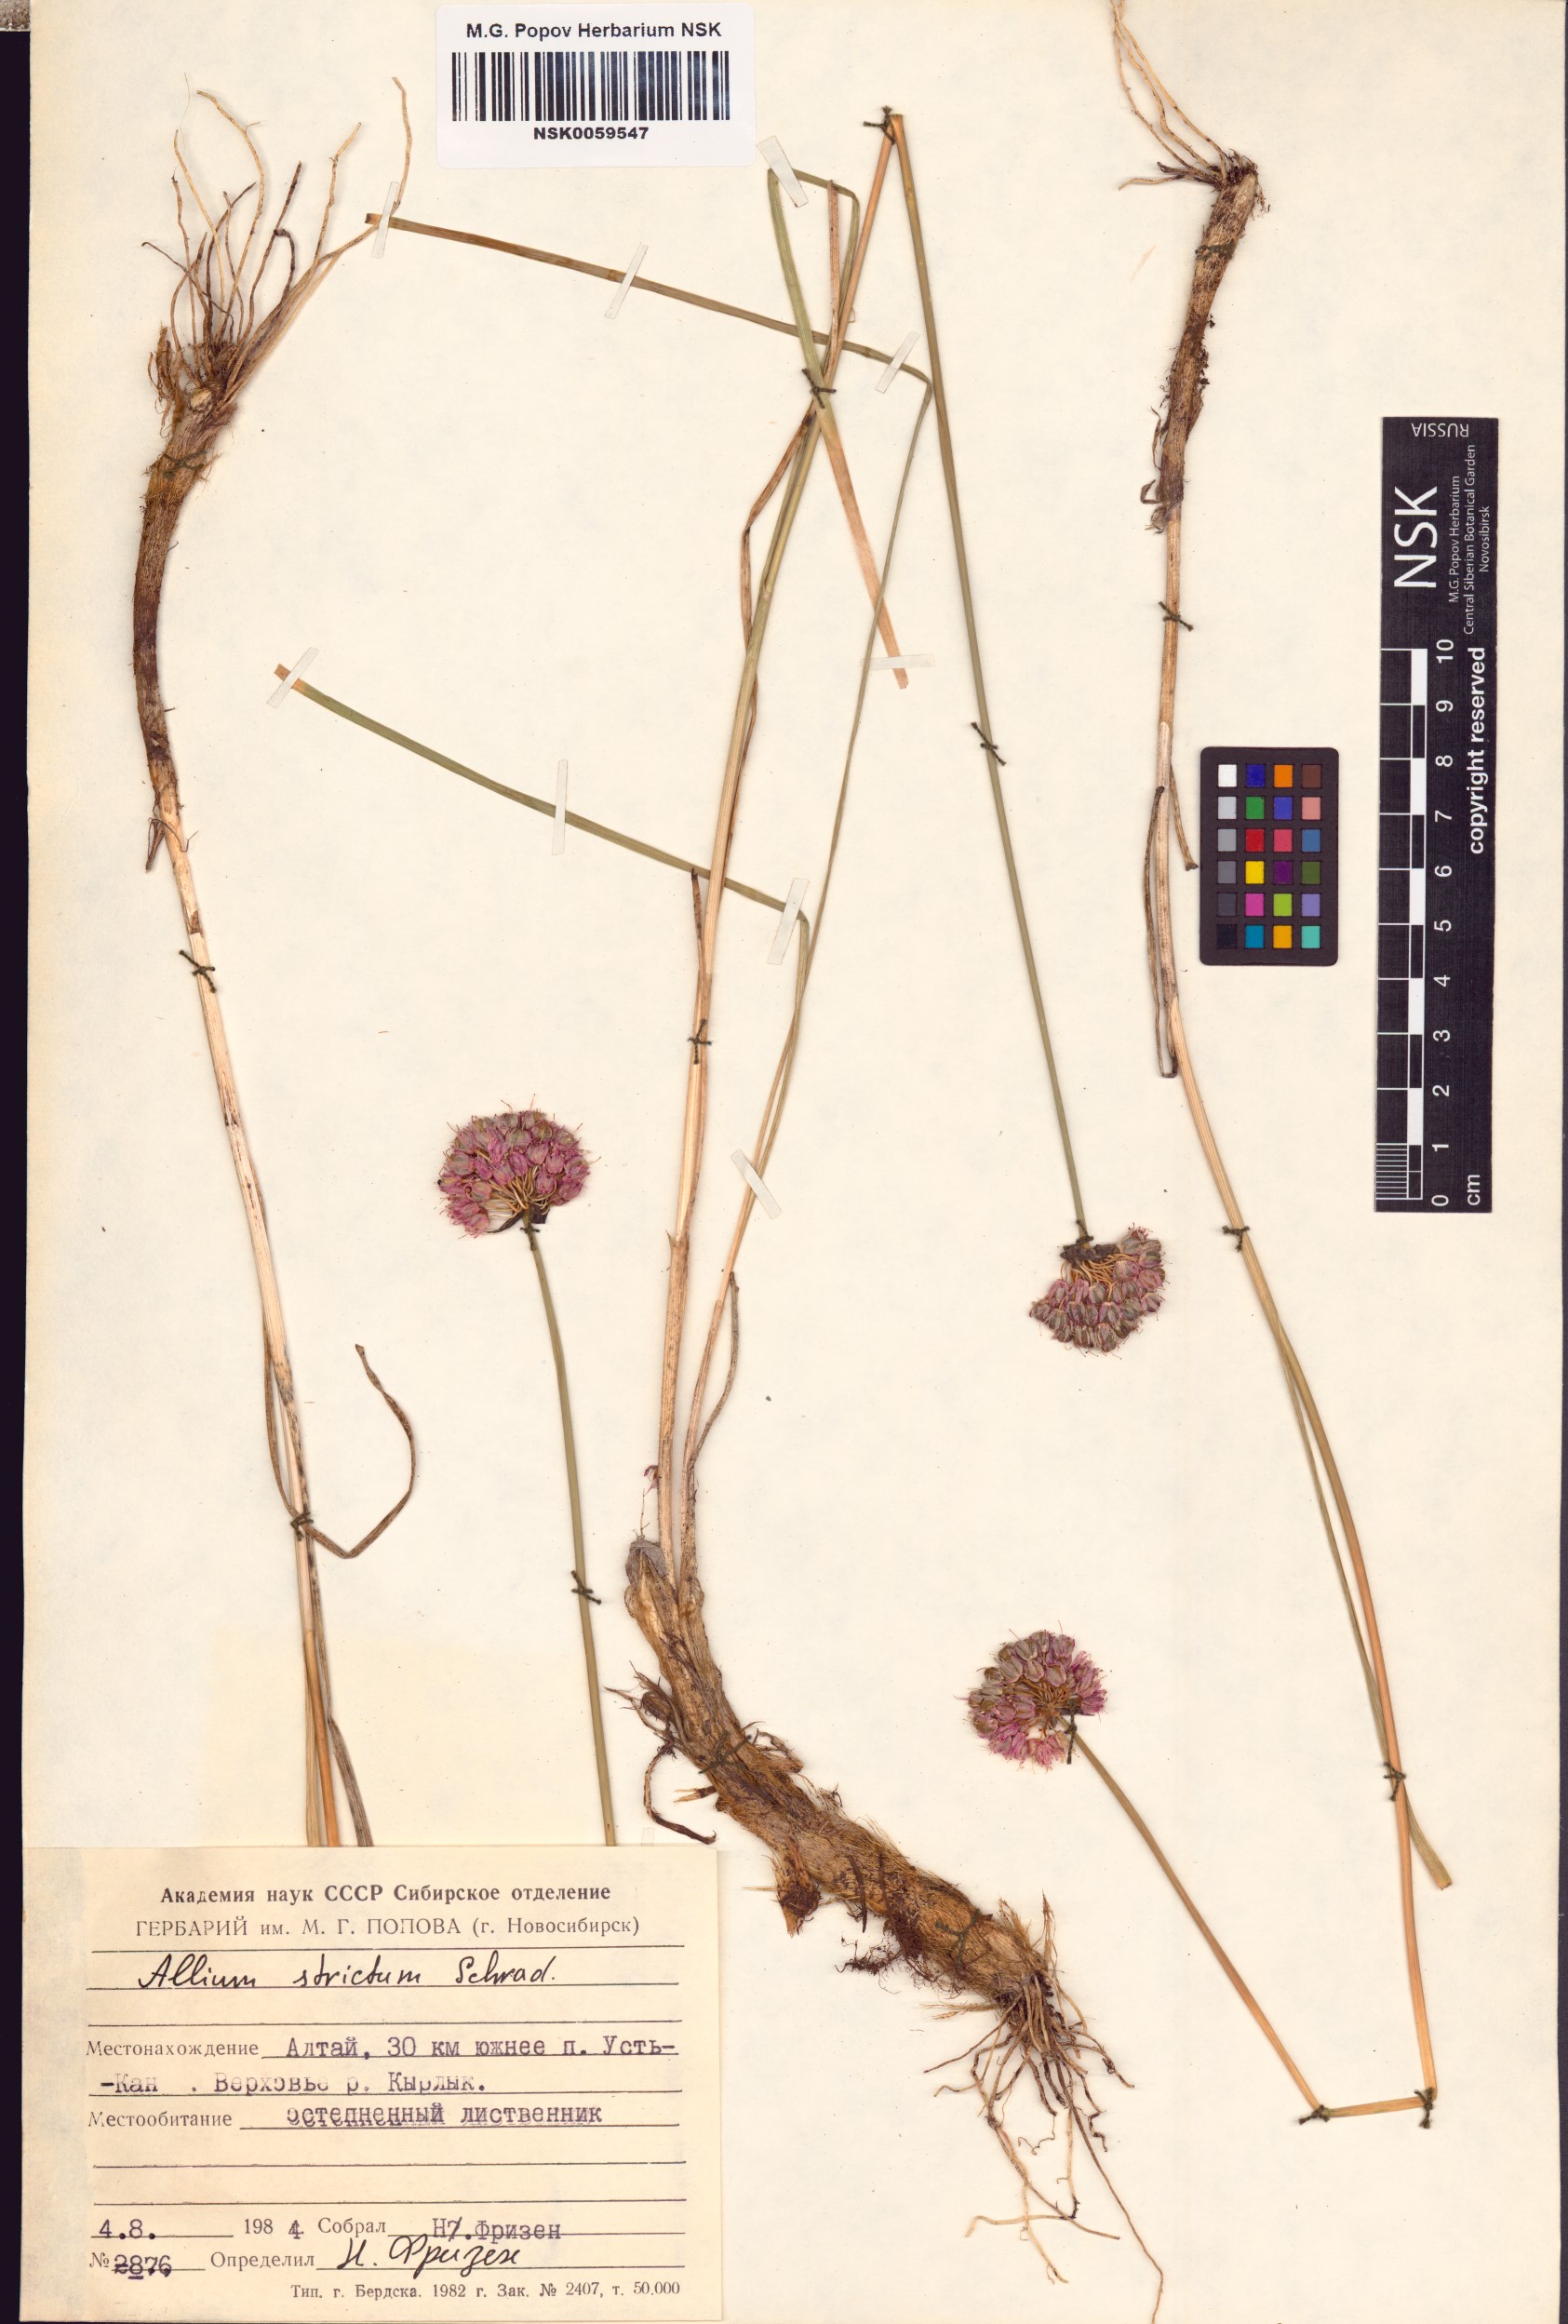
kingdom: Plantae
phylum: Tracheophyta
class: Liliopsida
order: Asparagales
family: Amaryllidaceae
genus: Allium
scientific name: Allium strictum
